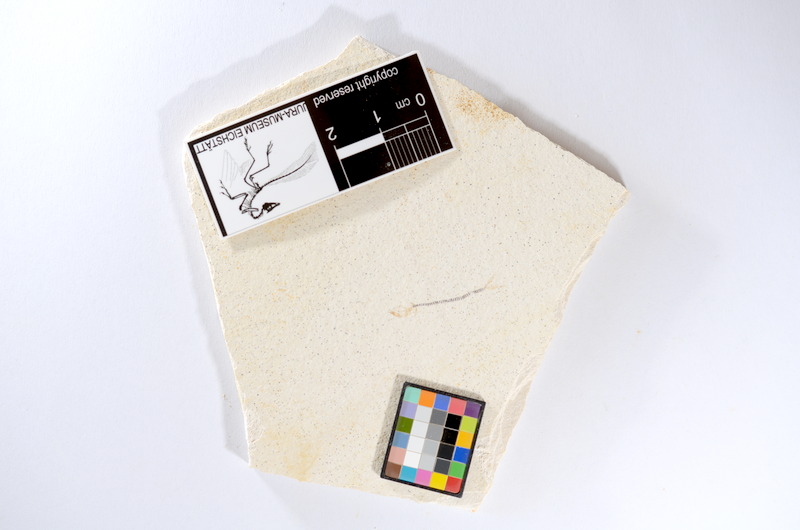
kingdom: Animalia
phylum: Chordata
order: Salmoniformes
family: Orthogonikleithridae
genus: Orthogonikleithrus
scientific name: Orthogonikleithrus hoelli
